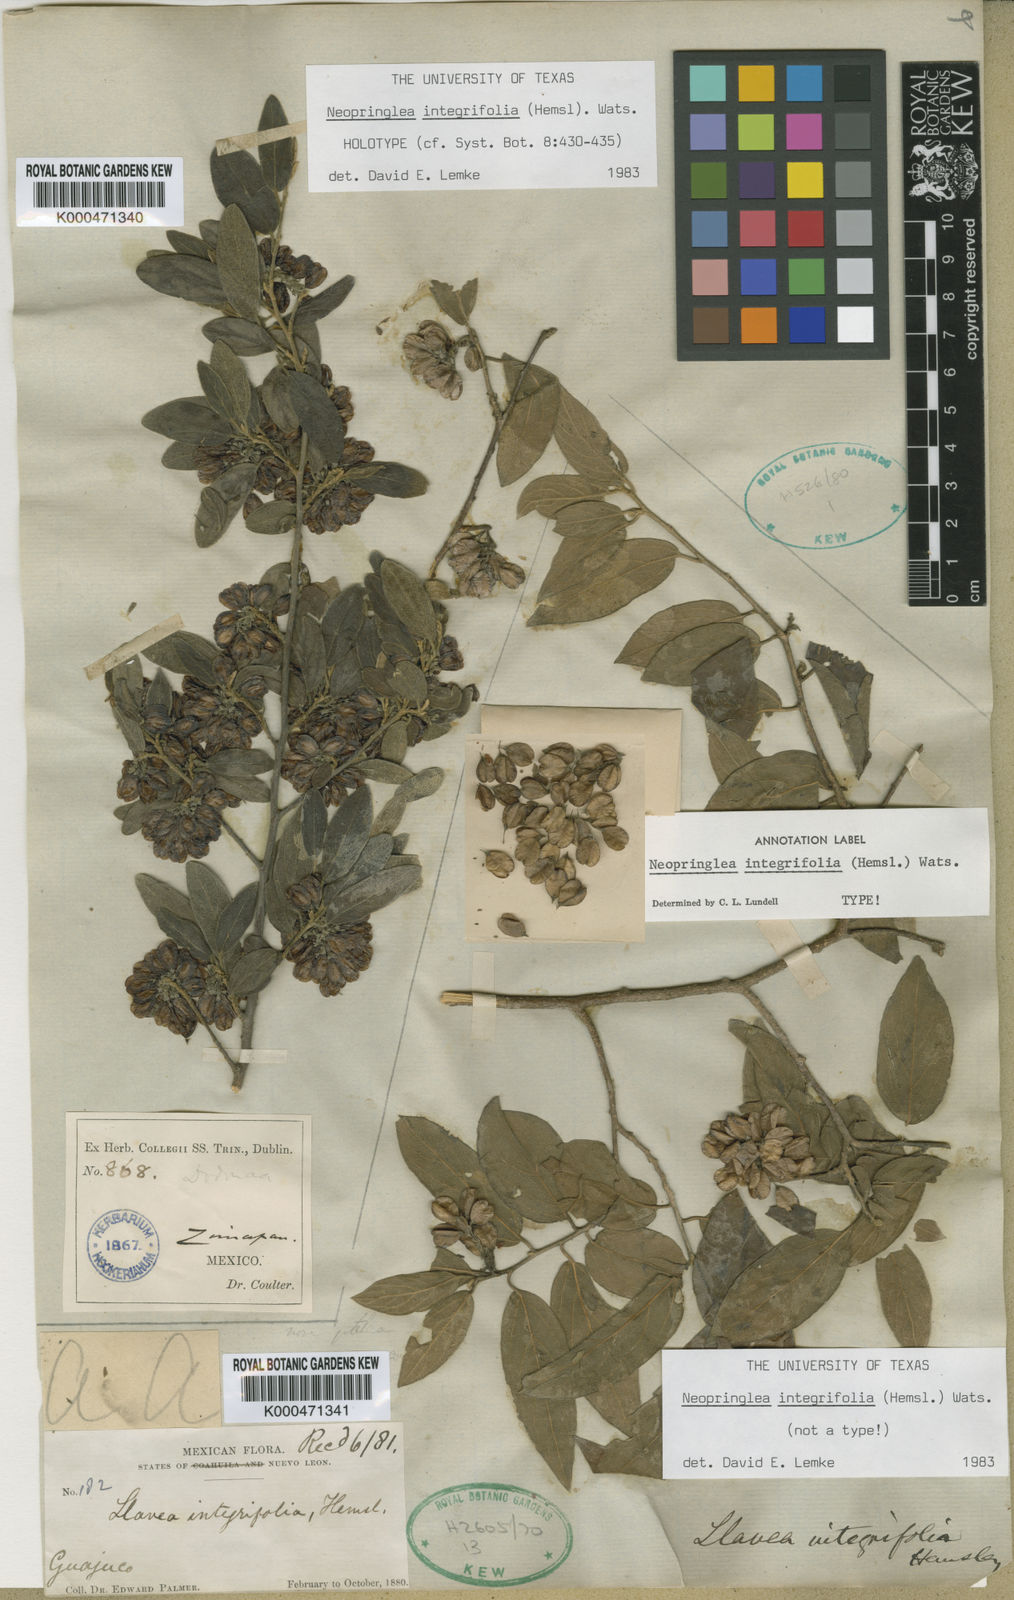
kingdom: Plantae
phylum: Tracheophyta
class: Magnoliopsida
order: Malpighiales
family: Salicaceae
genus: Neopringlea
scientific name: Neopringlea integrifolia
